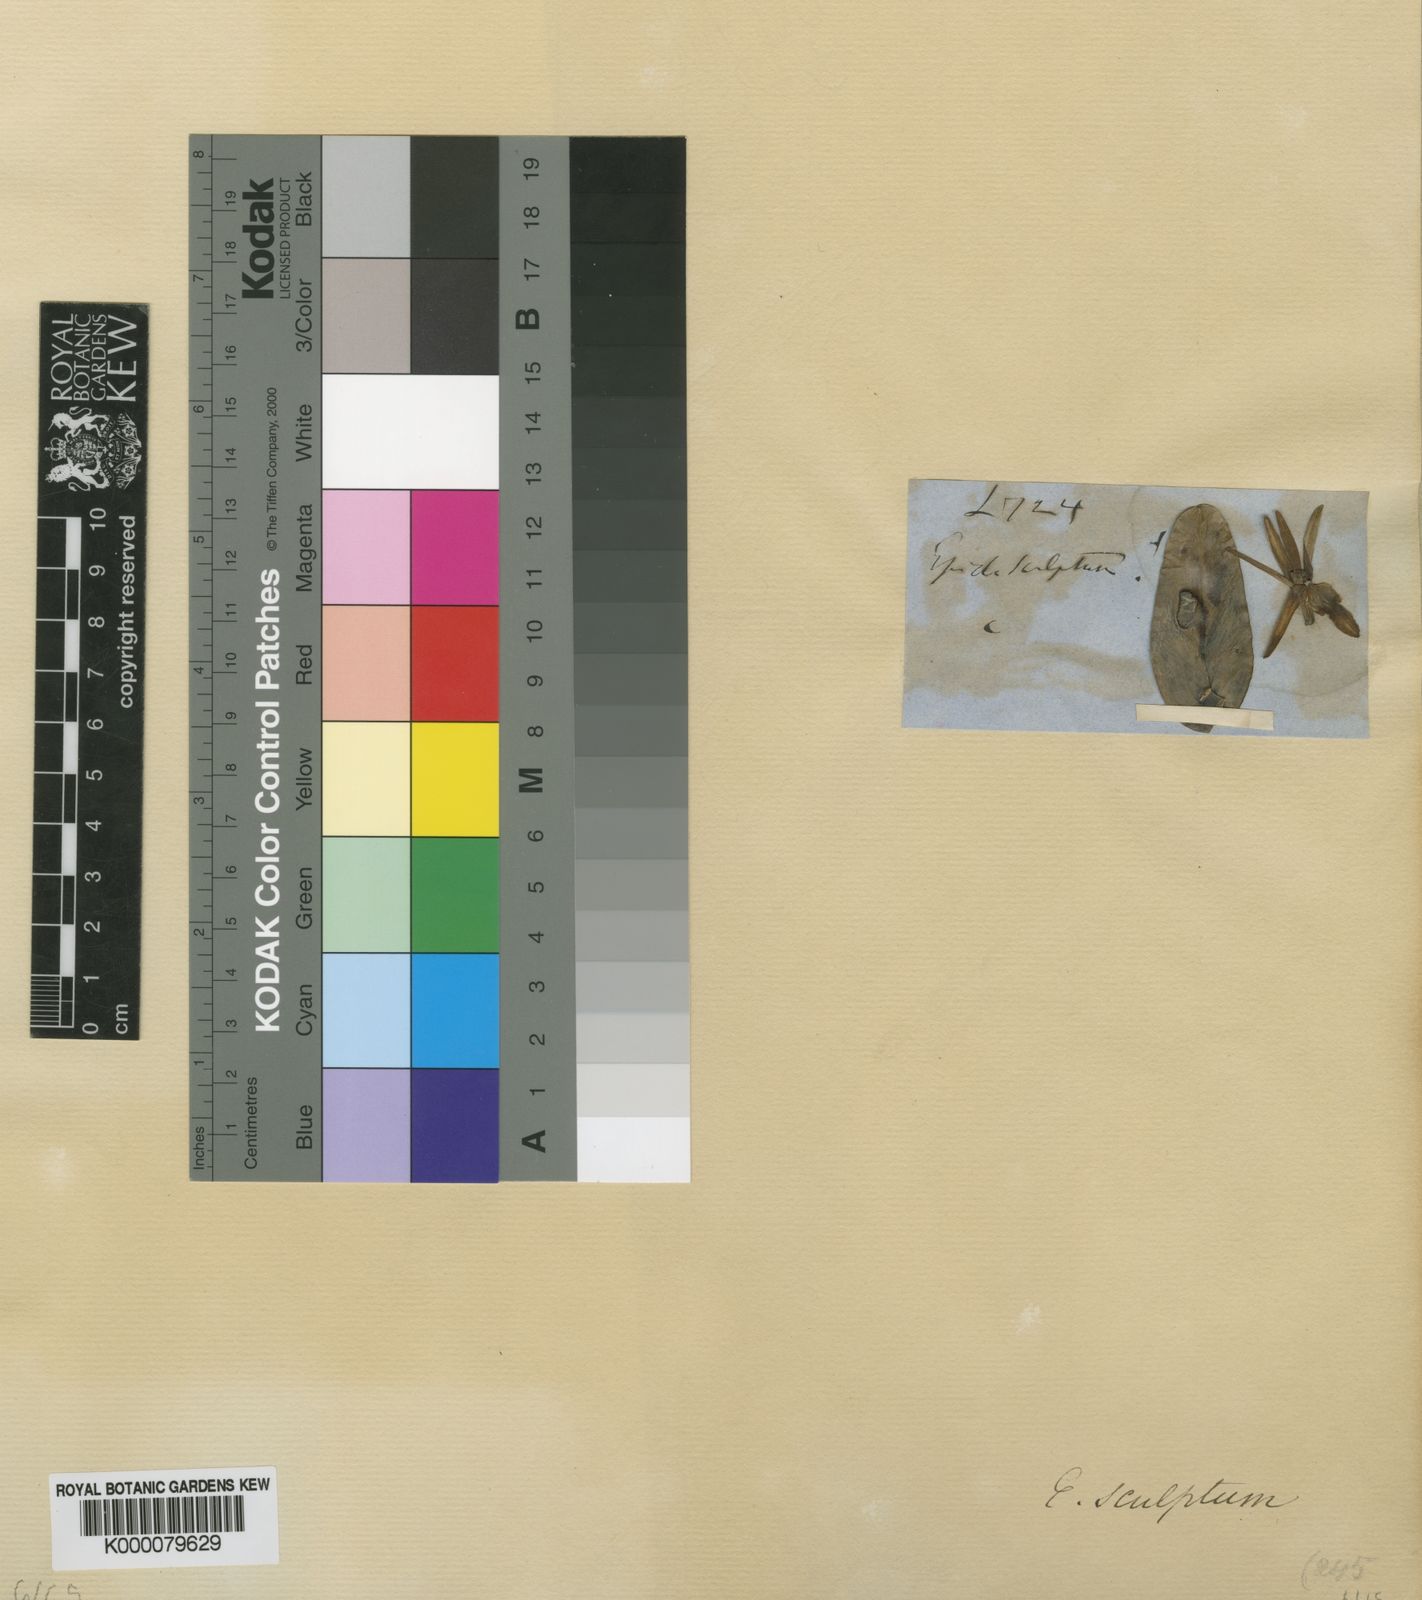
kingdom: Plantae
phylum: Tracheophyta
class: Liliopsida
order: Asparagales
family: Orchidaceae
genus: Epidendrum
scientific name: Epidendrum sculptum
